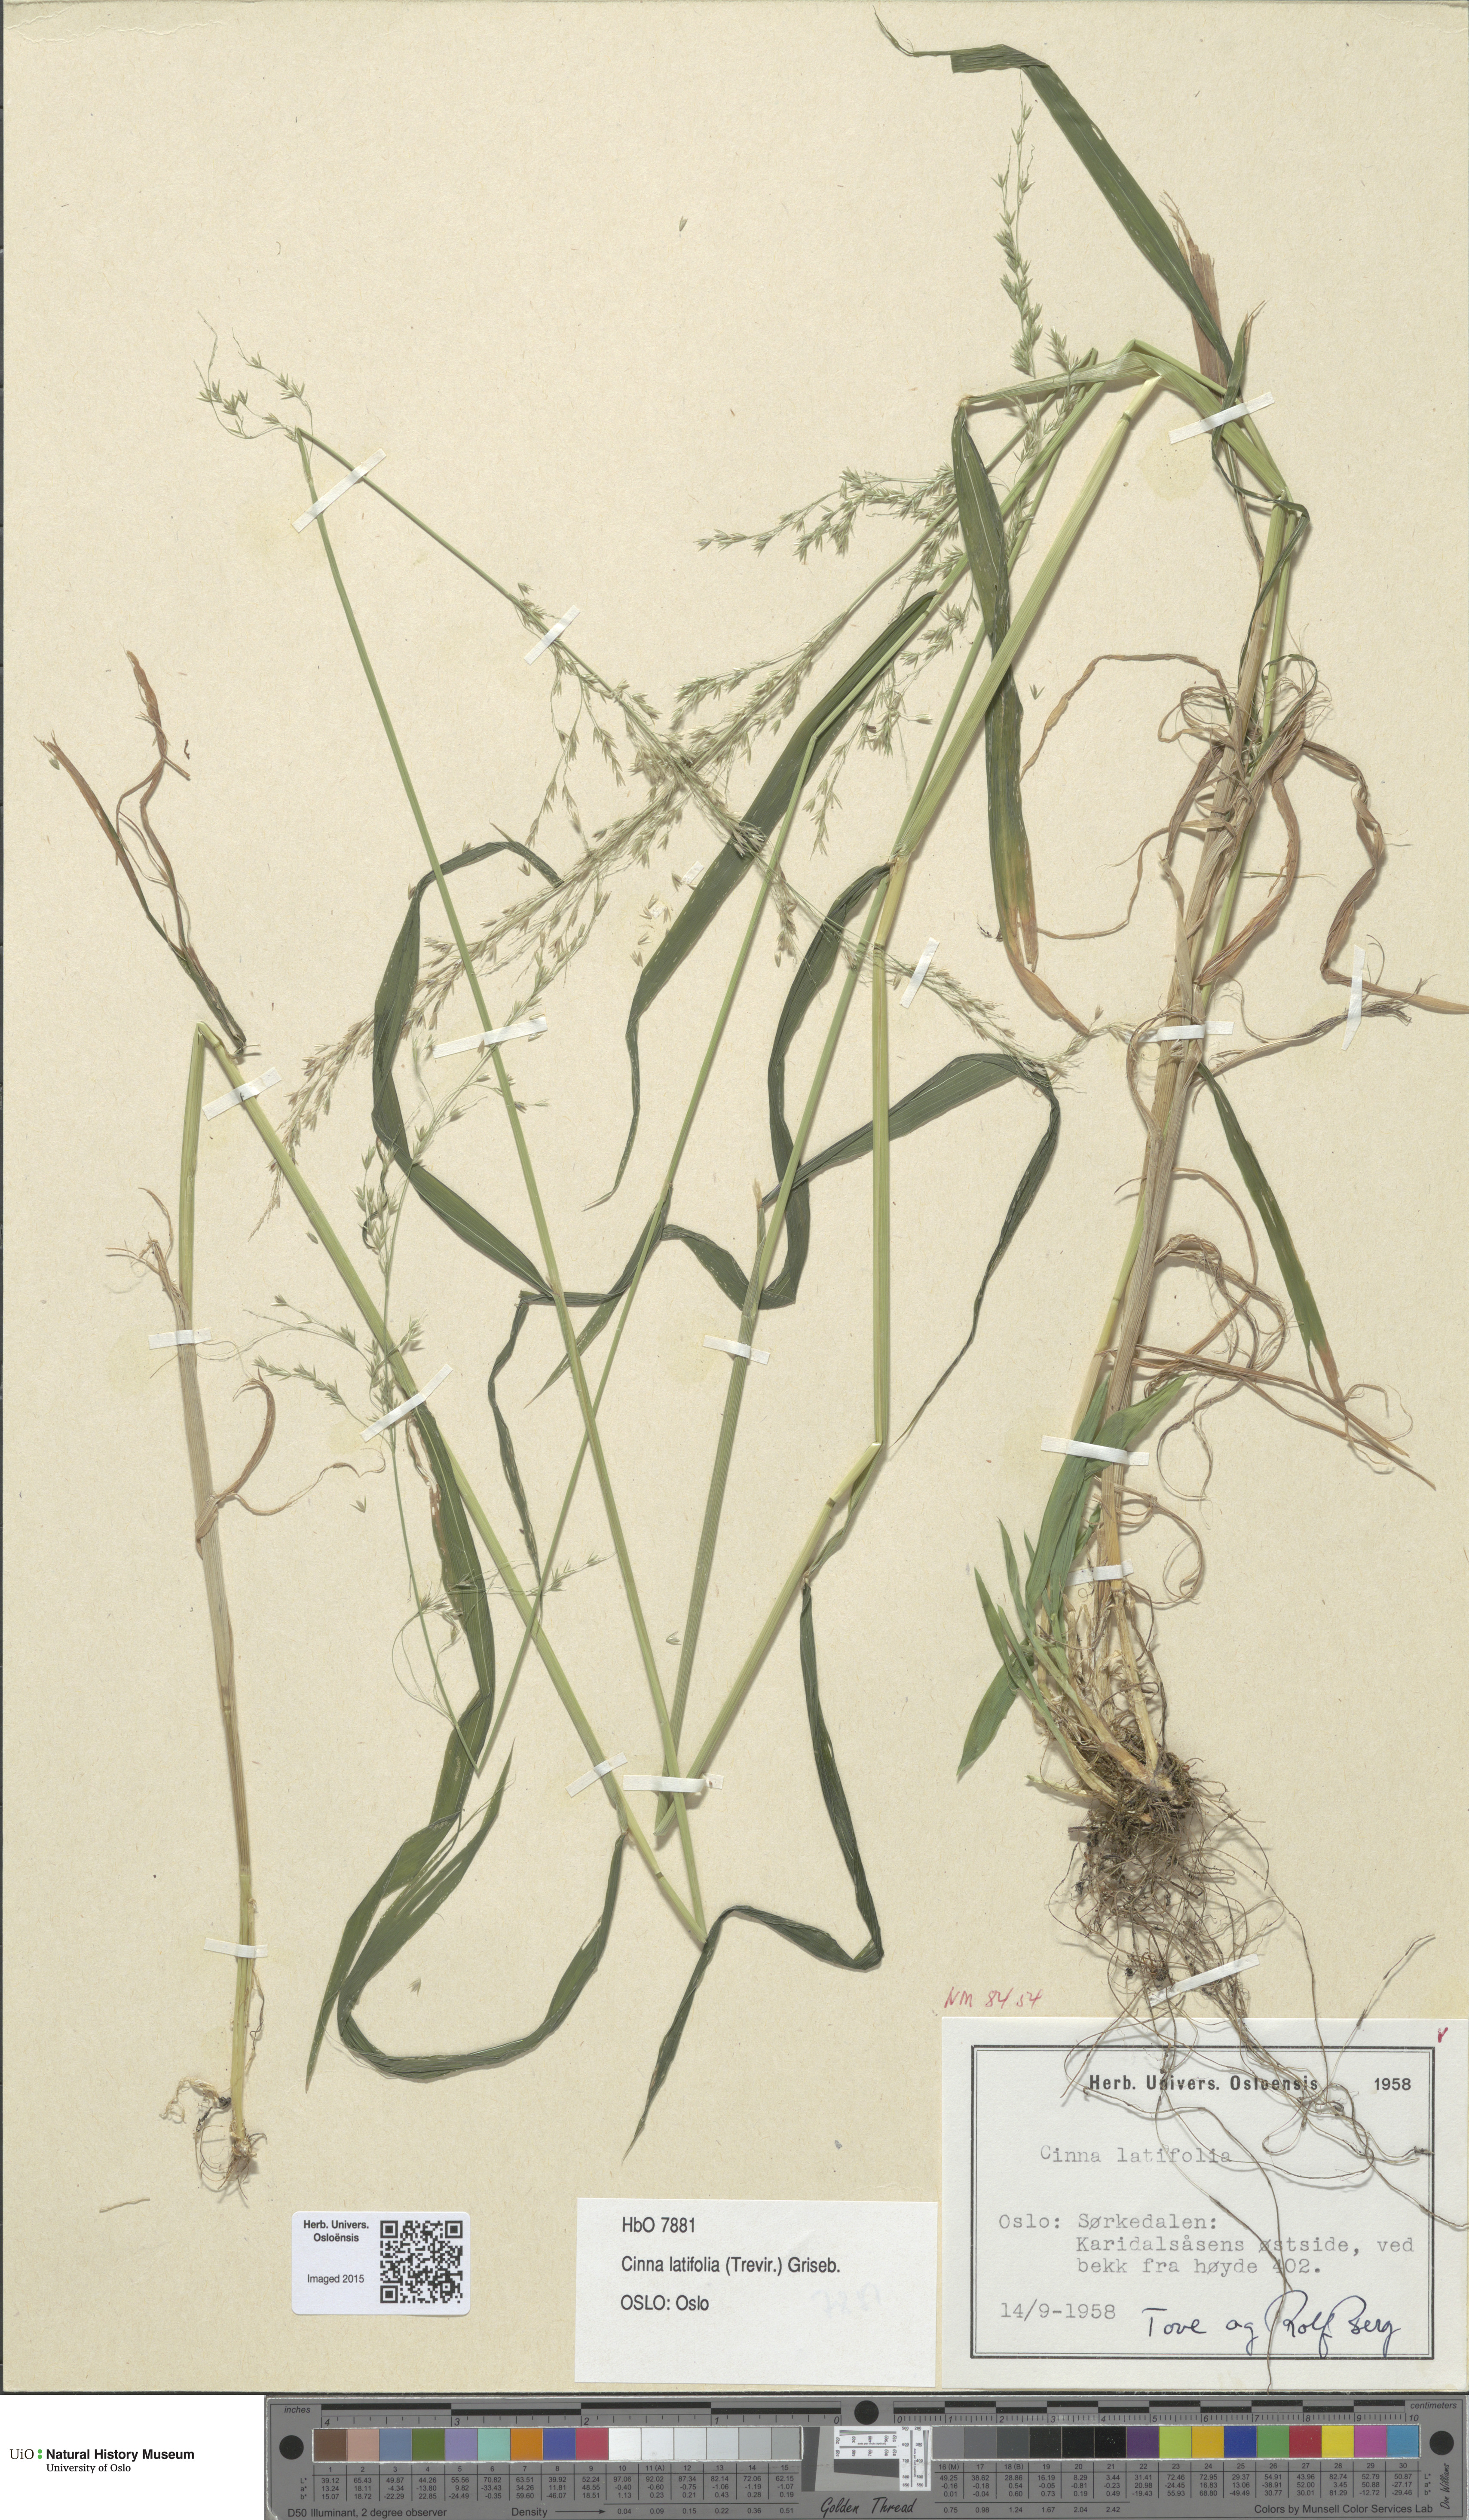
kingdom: Plantae
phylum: Tracheophyta
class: Liliopsida
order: Poales
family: Poaceae
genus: Cinna
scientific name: Cinna latifolia
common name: Drooping woodreed
